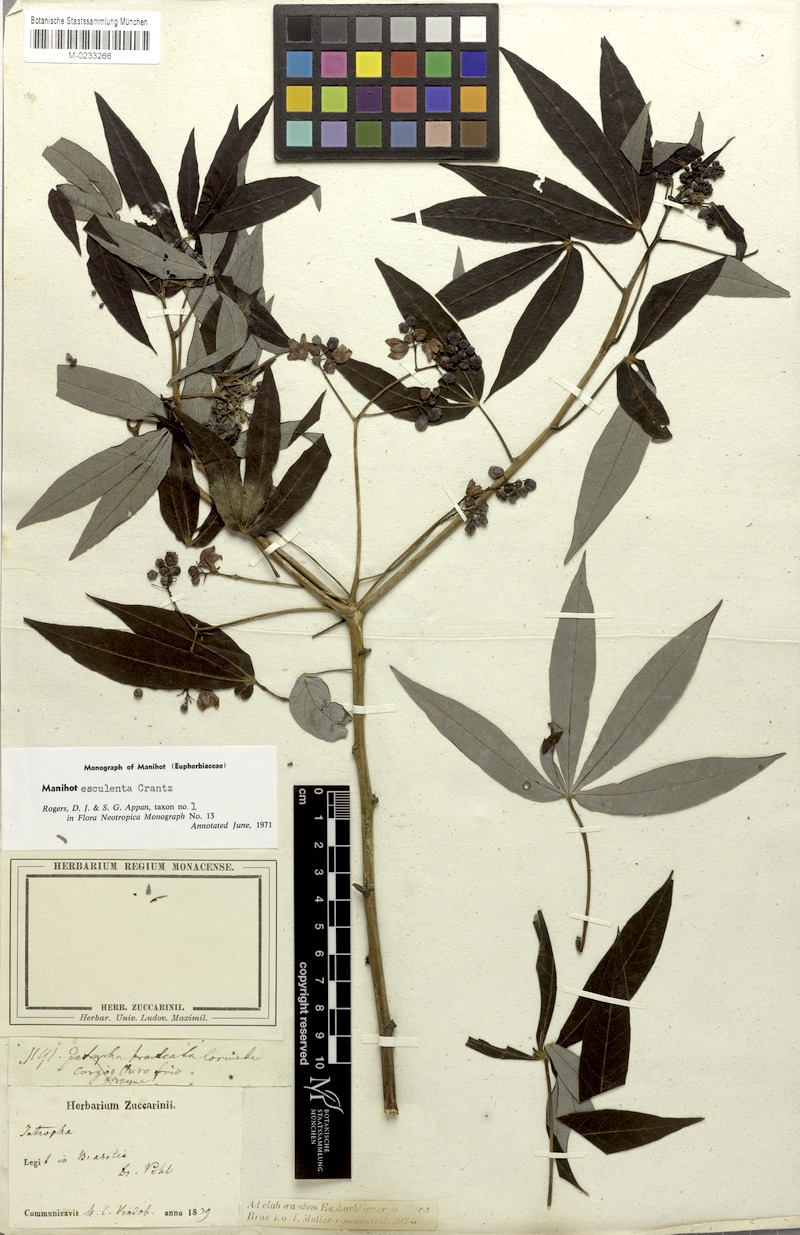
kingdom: Plantae
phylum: Tracheophyta
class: Magnoliopsida
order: Malpighiales
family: Euphorbiaceae
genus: Manihot
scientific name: Manihot esculenta
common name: Cassava
